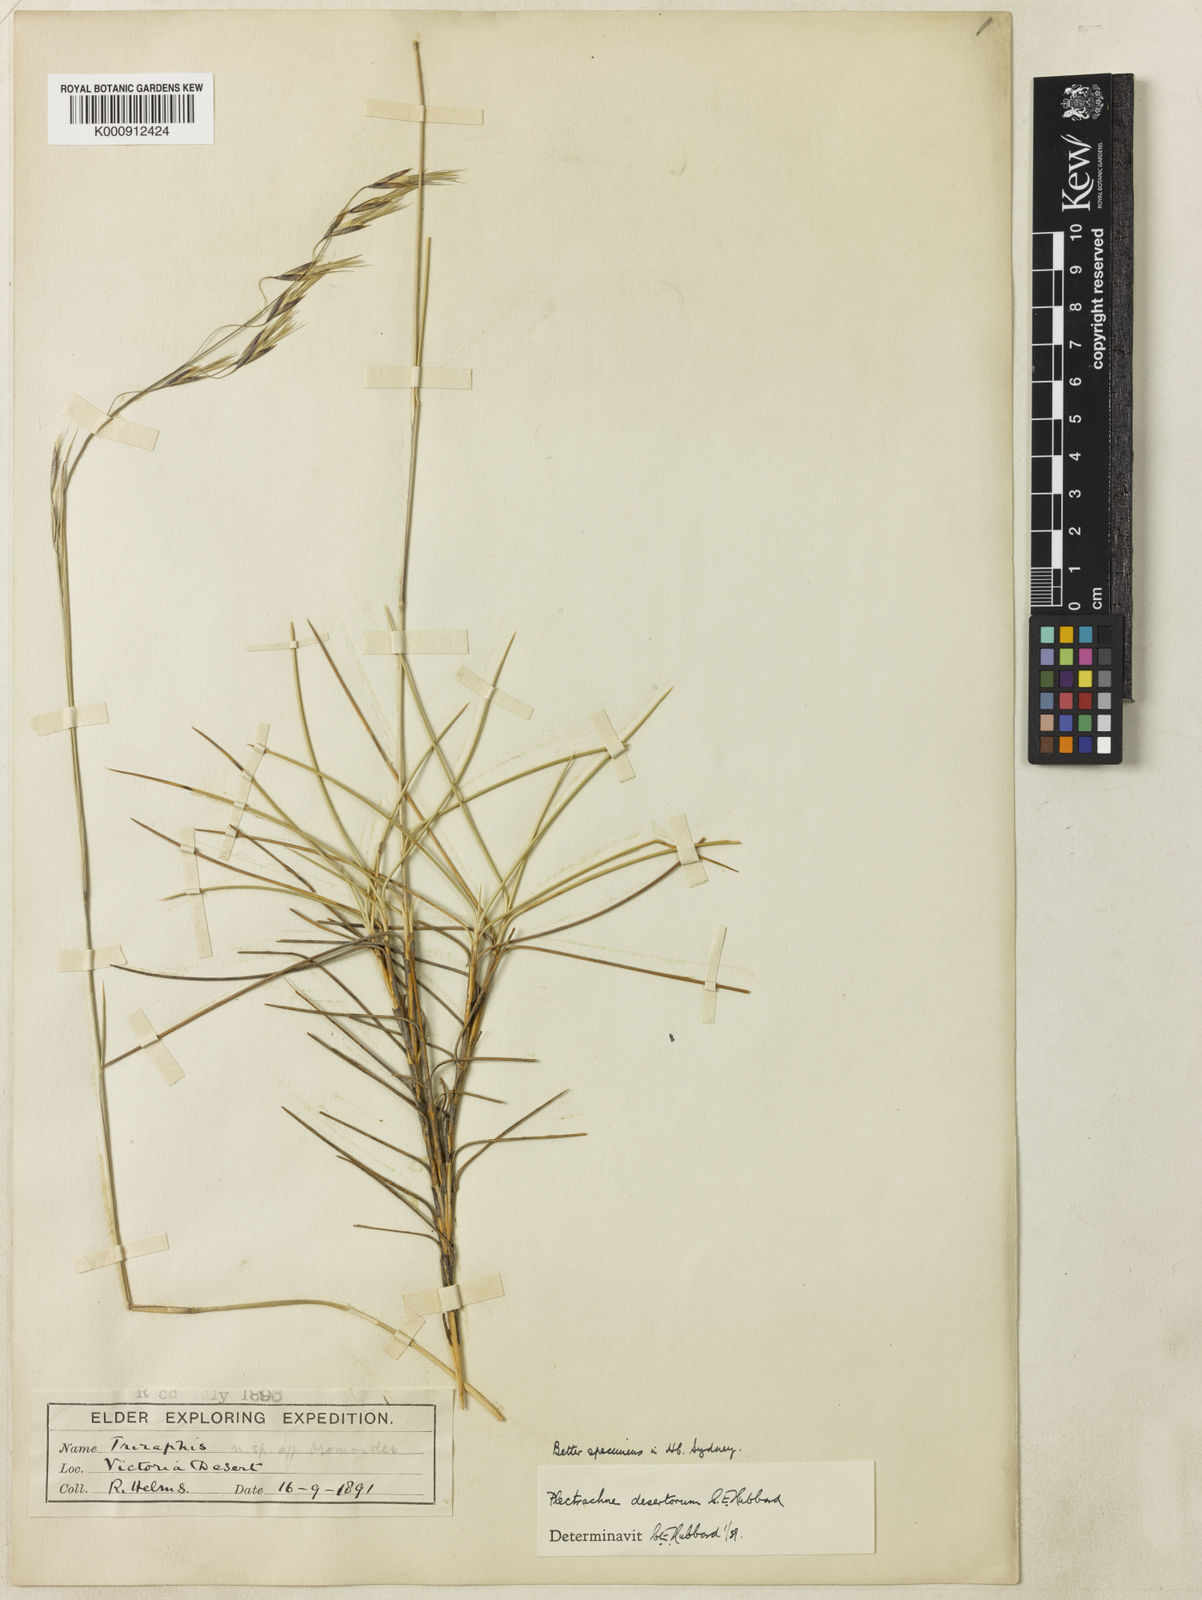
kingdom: Plantae
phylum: Tracheophyta
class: Liliopsida
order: Poales
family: Poaceae
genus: Triodia
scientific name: Triodia desertorum
